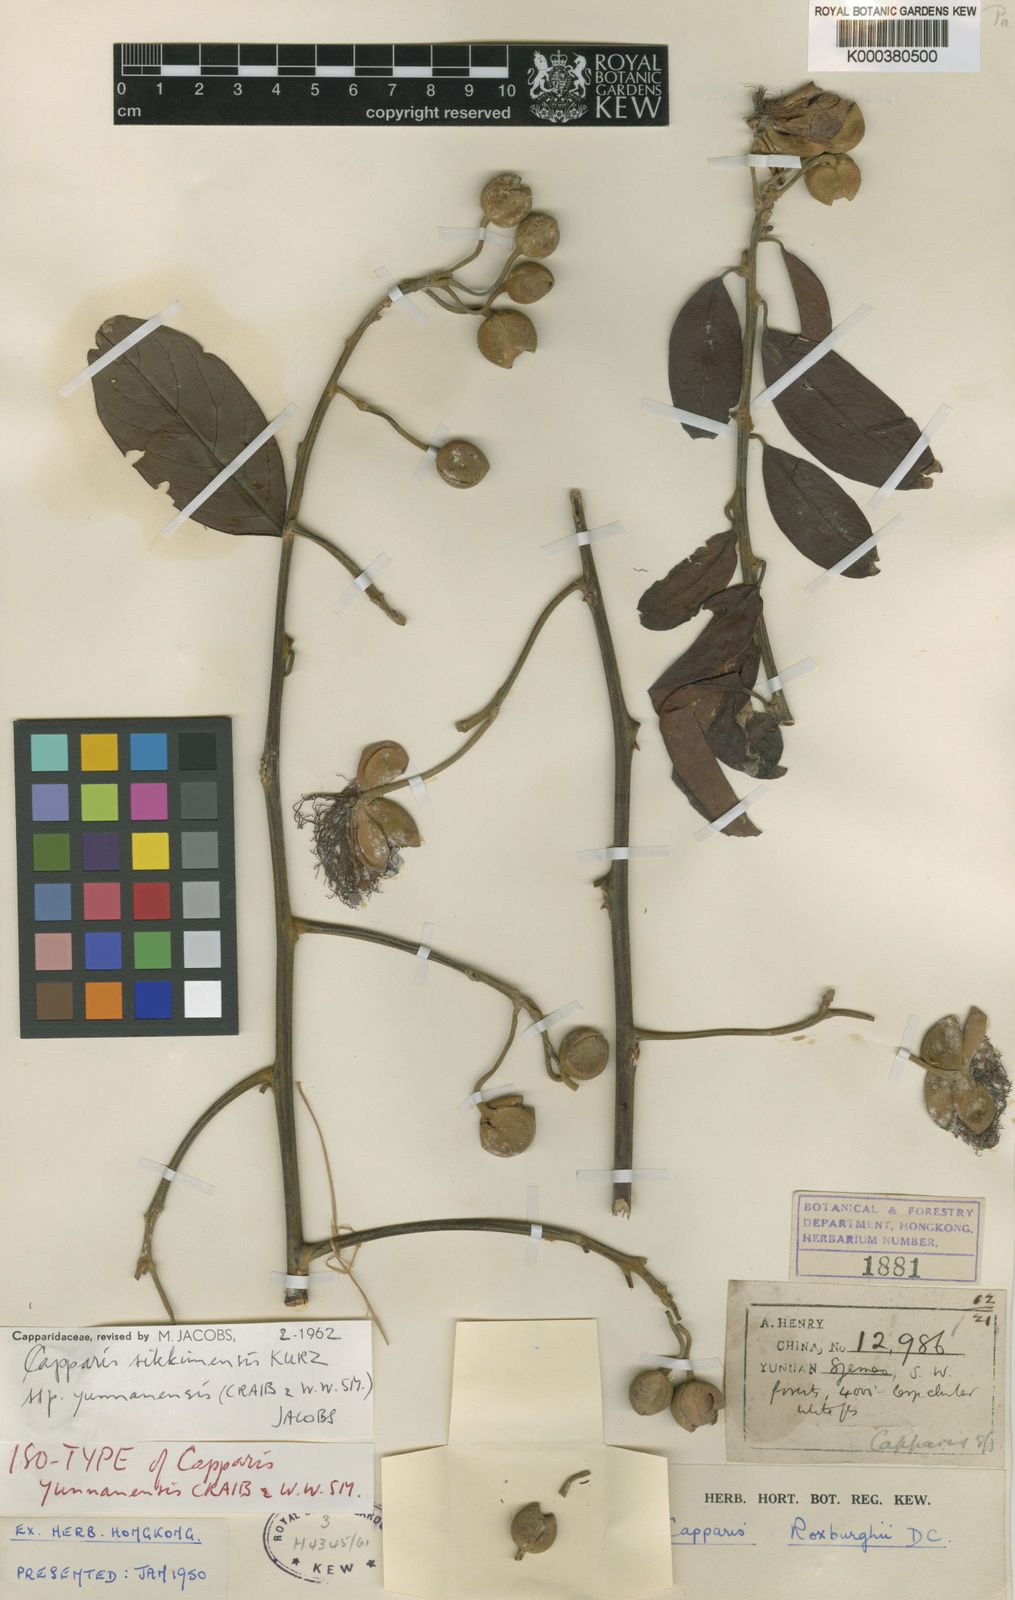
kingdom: Plantae
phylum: Tracheophyta
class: Magnoliopsida
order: Brassicales
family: Capparaceae
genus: Capparis
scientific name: Capparis yunnanensis
